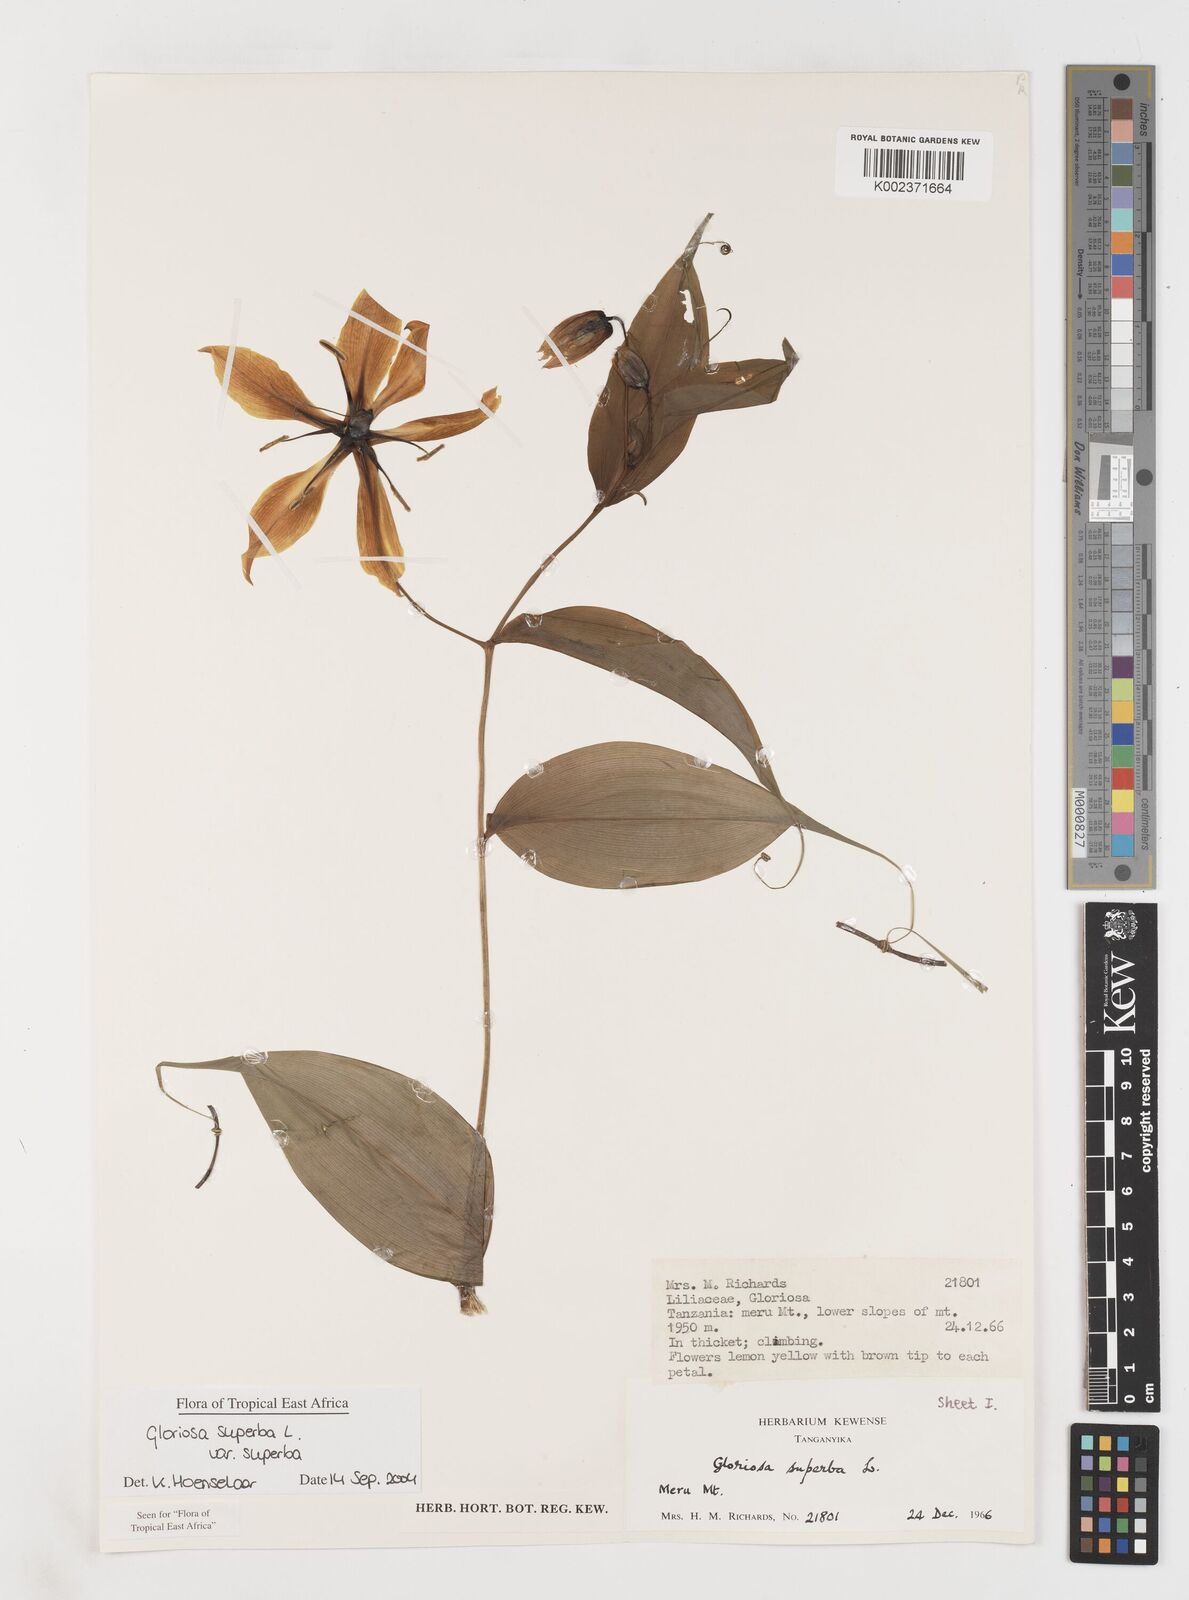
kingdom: Plantae
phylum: Tracheophyta
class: Liliopsida
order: Liliales
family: Colchicaceae
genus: Gloriosa
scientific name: Gloriosa simplex
